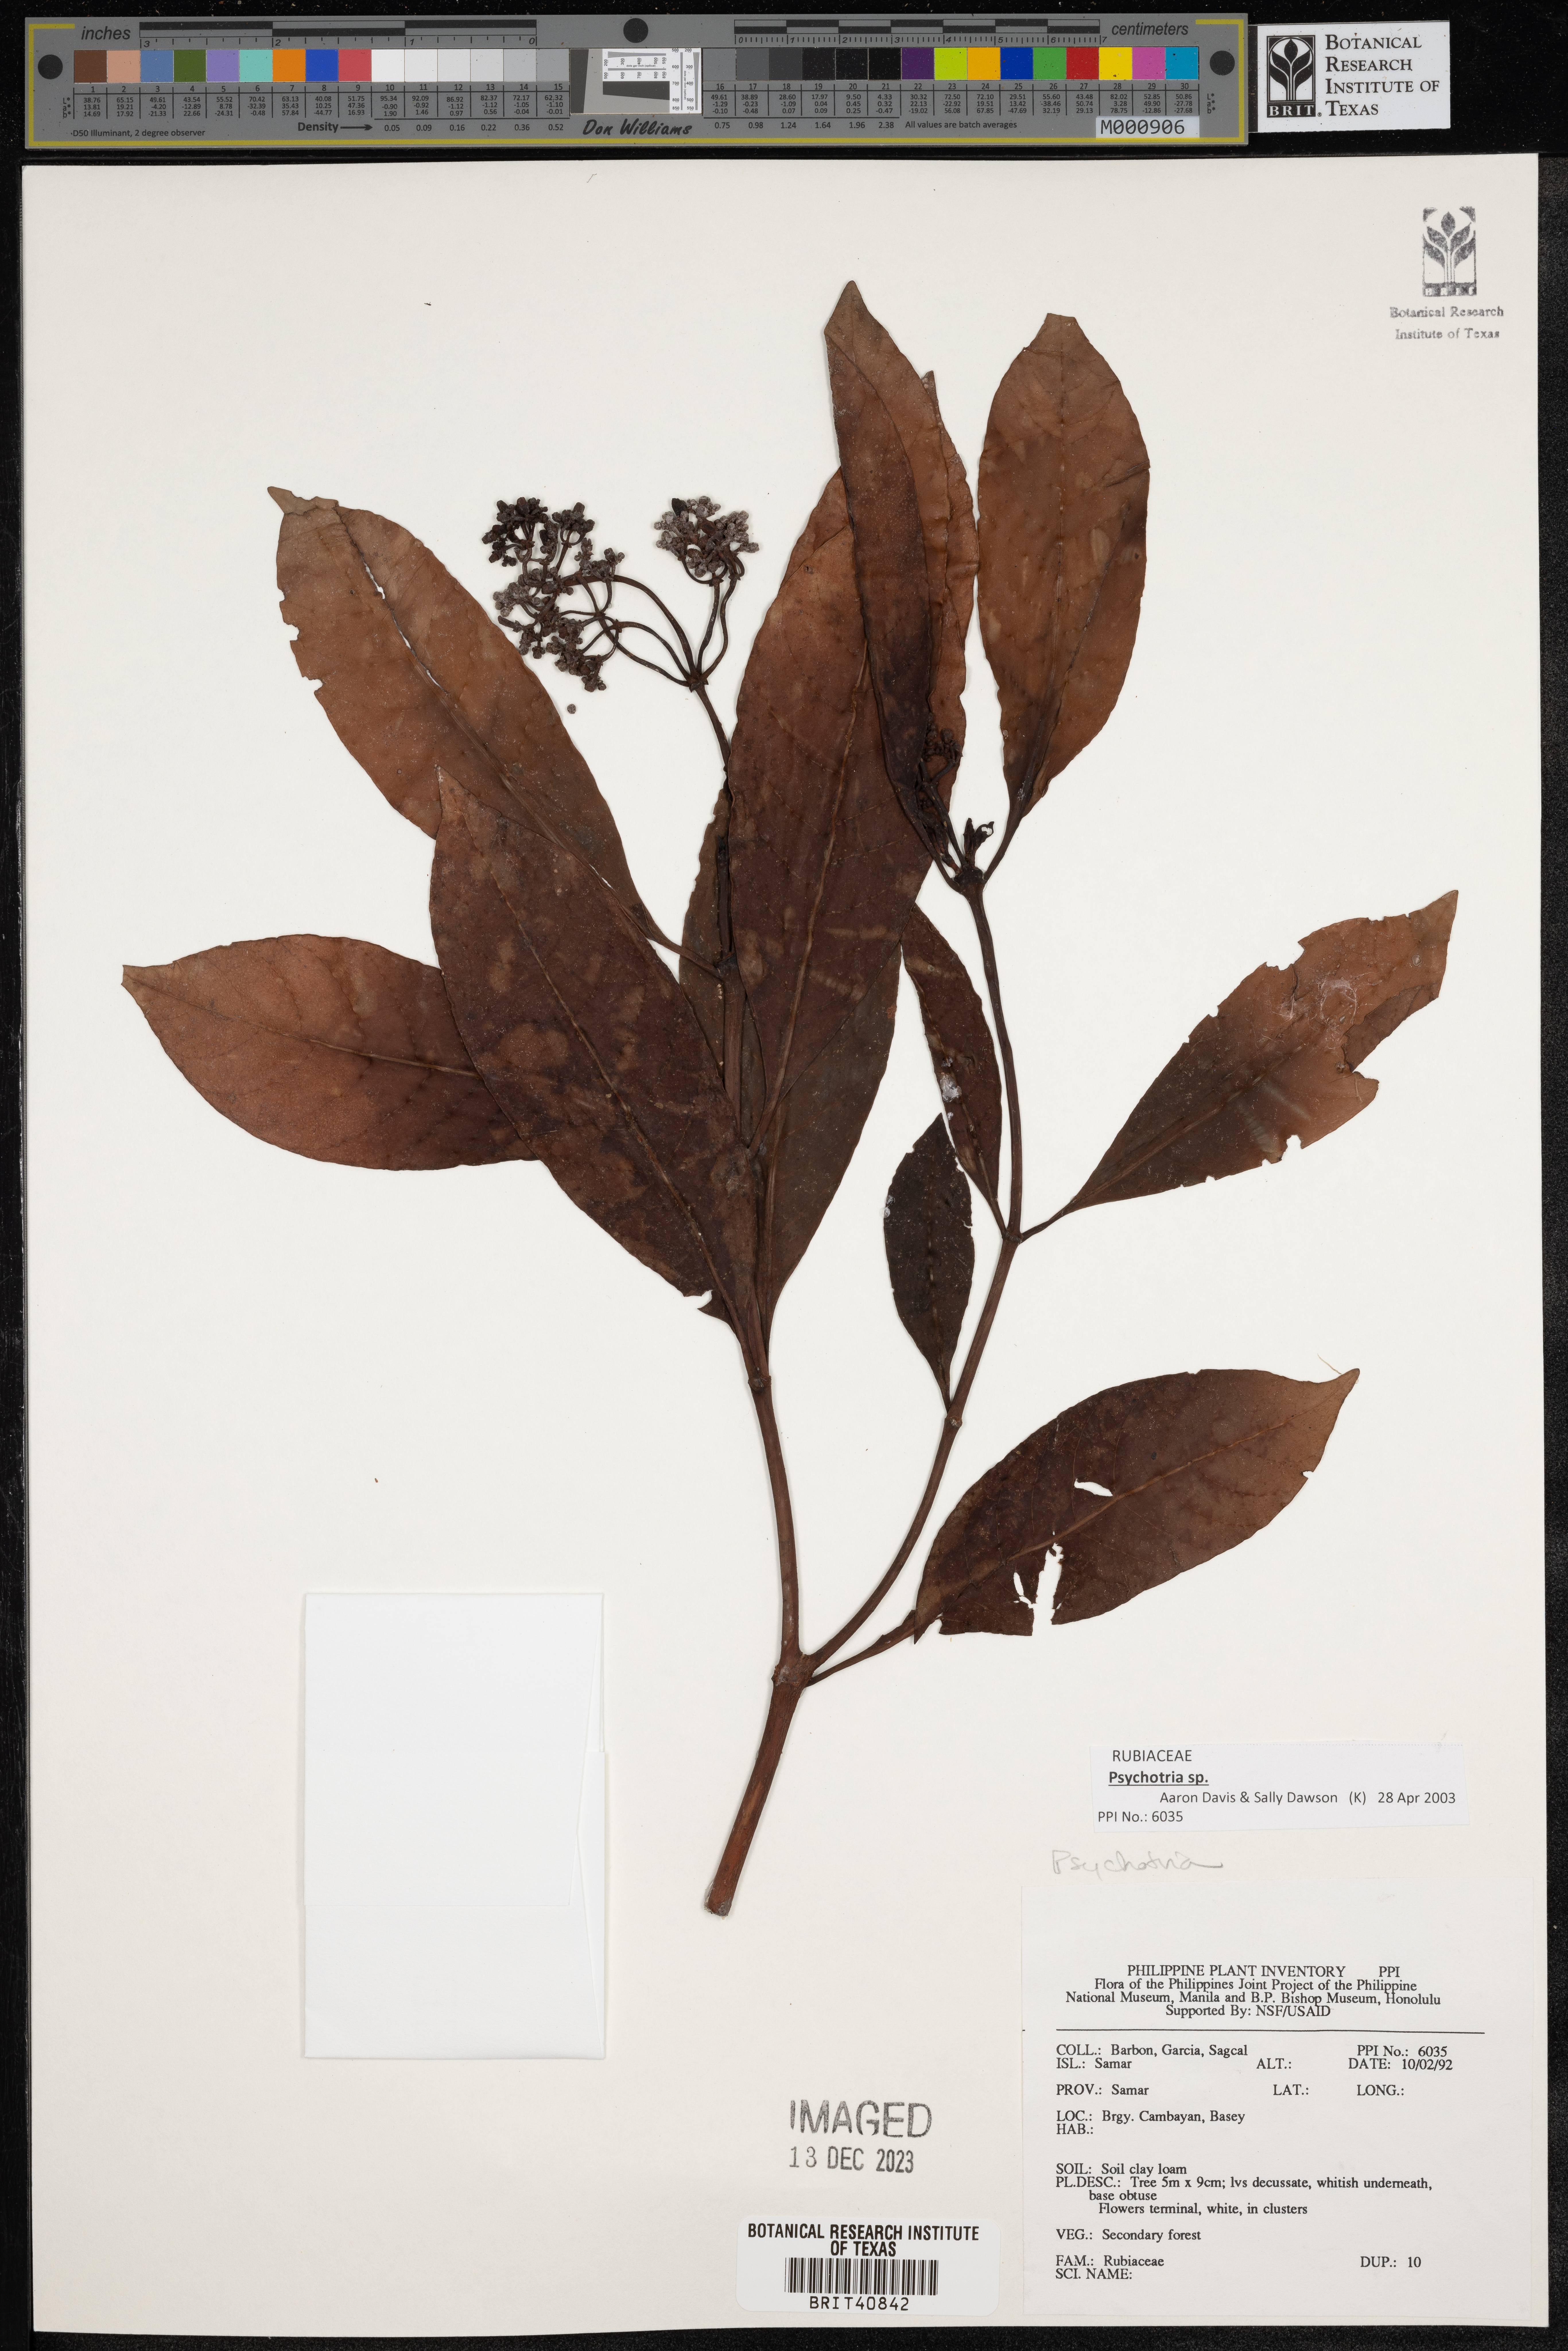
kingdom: Plantae
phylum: Tracheophyta
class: Magnoliopsida
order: Gentianales
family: Rubiaceae
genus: Psychotria
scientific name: Psychotria
